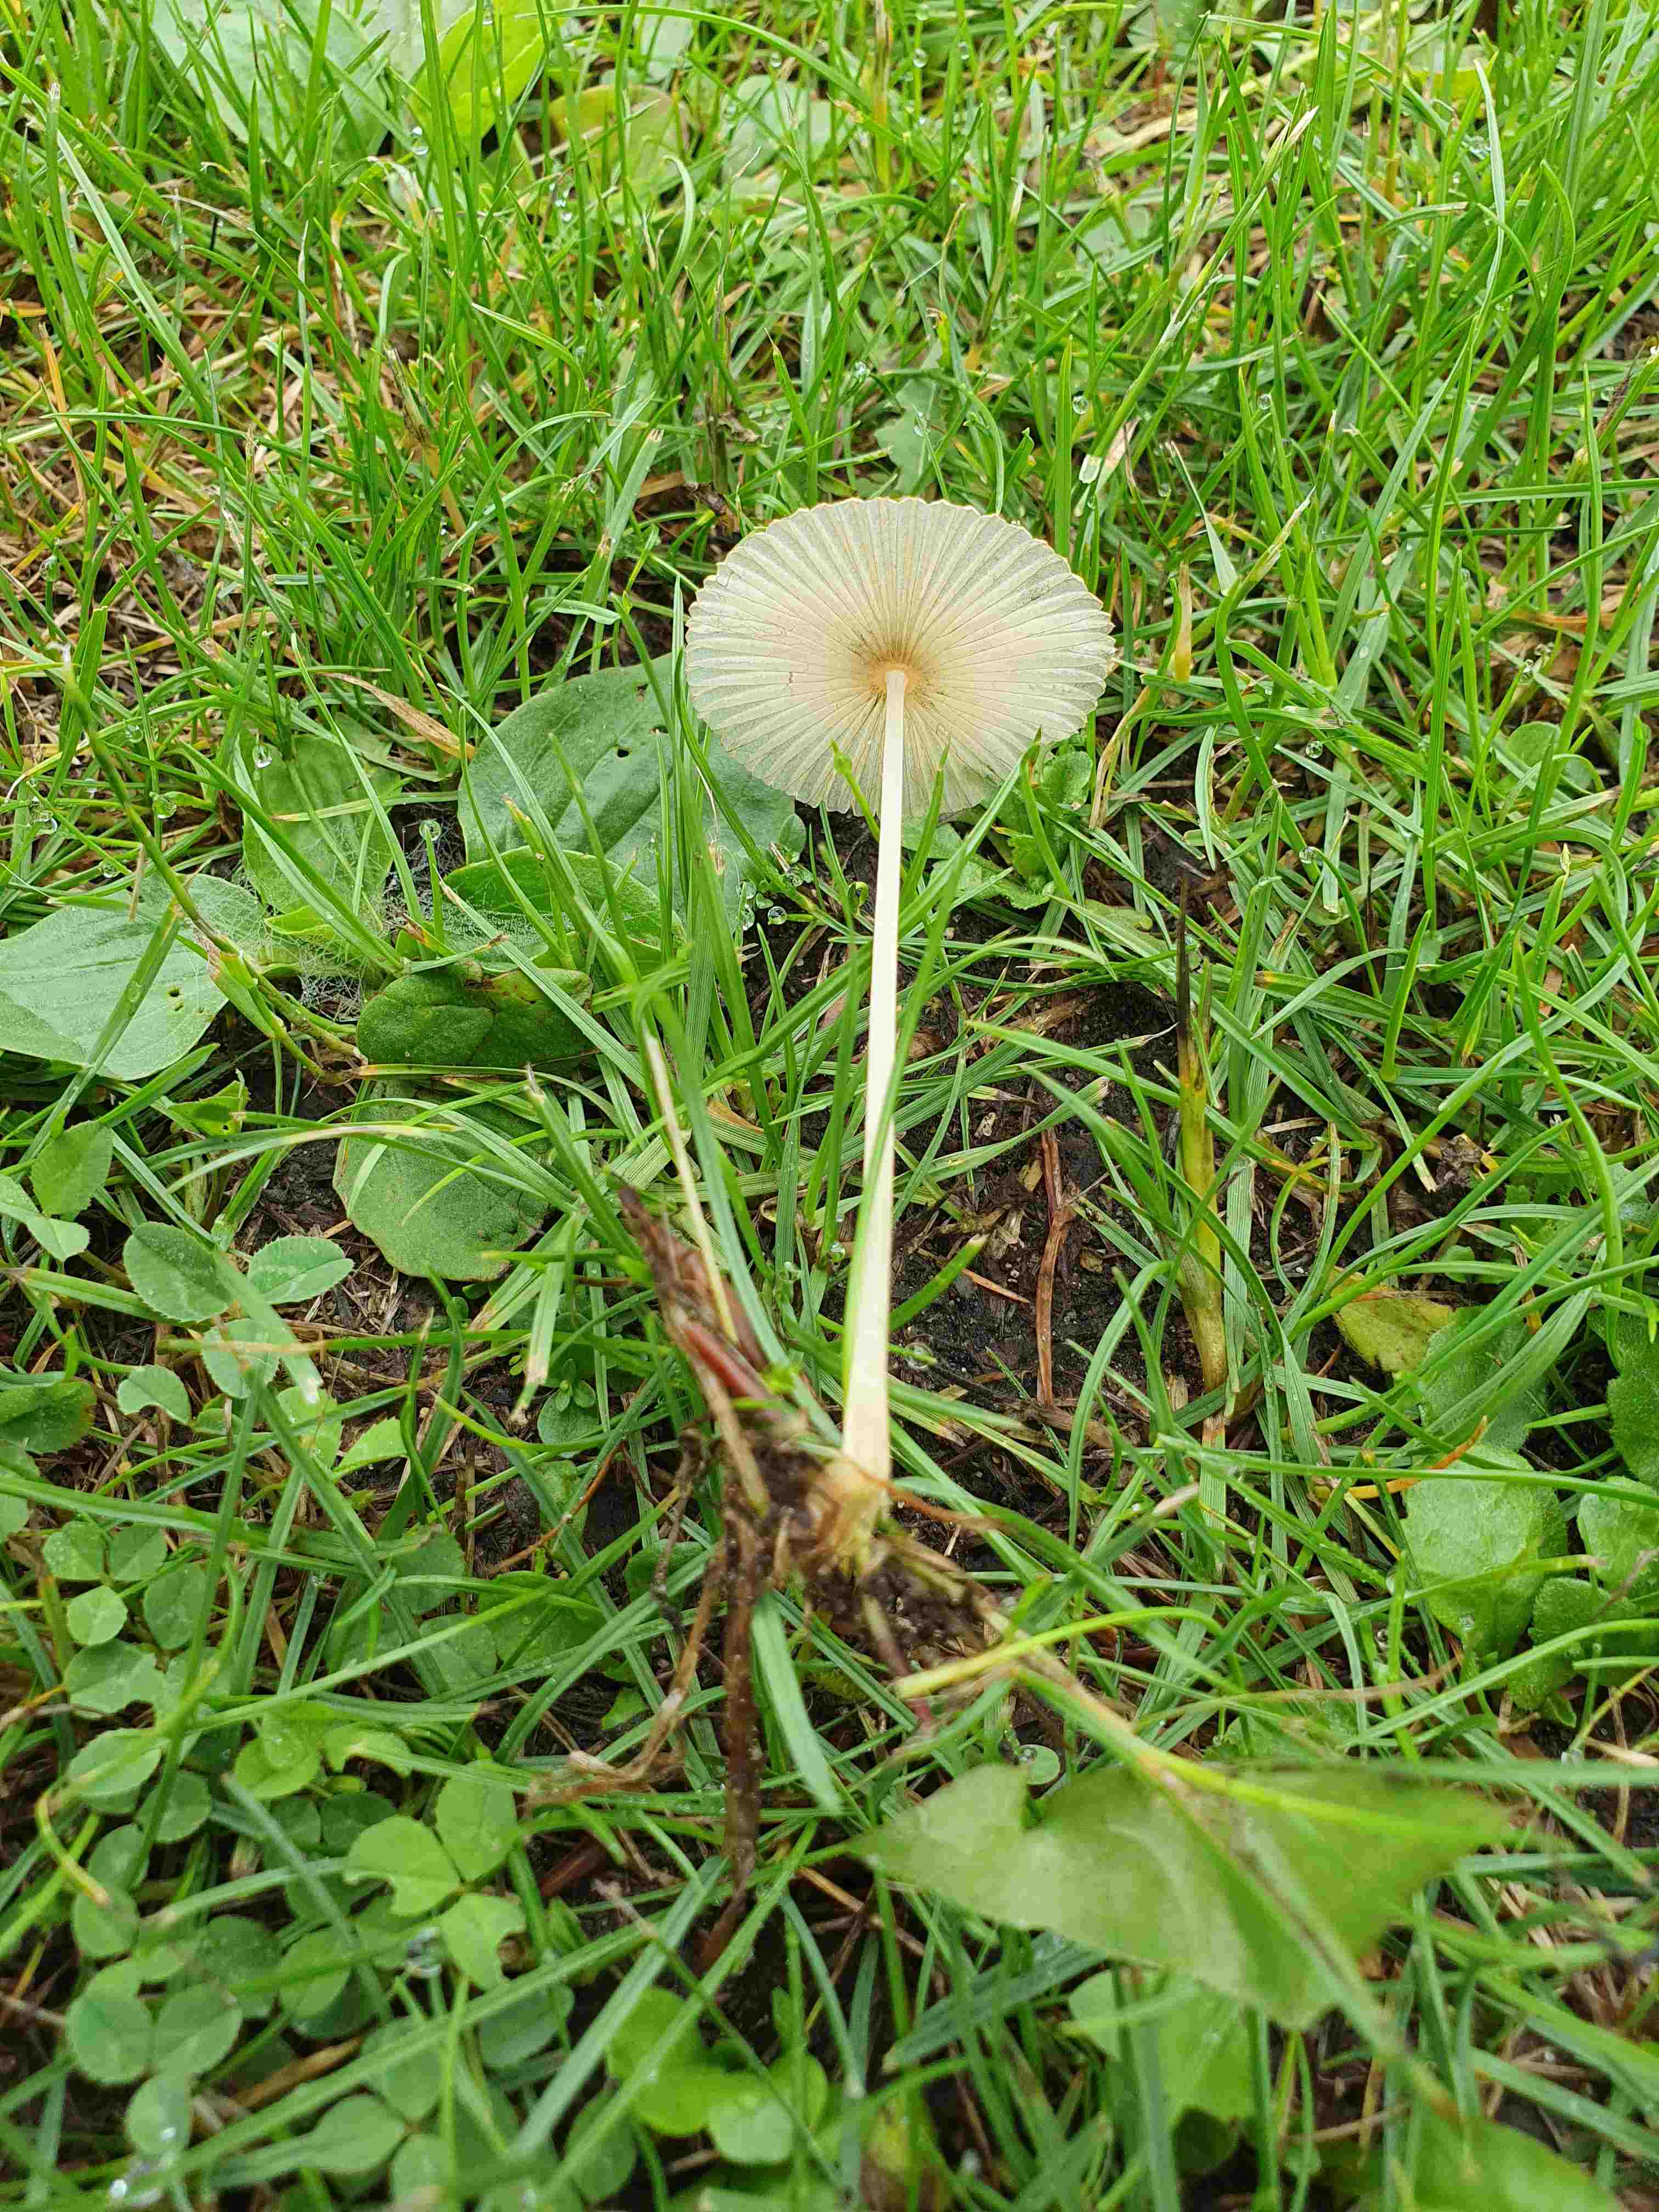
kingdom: Fungi
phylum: Basidiomycota
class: Agaricomycetes
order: Agaricales
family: Psathyrellaceae
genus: Parasola
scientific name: Parasola lactea
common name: glat hjulhat
